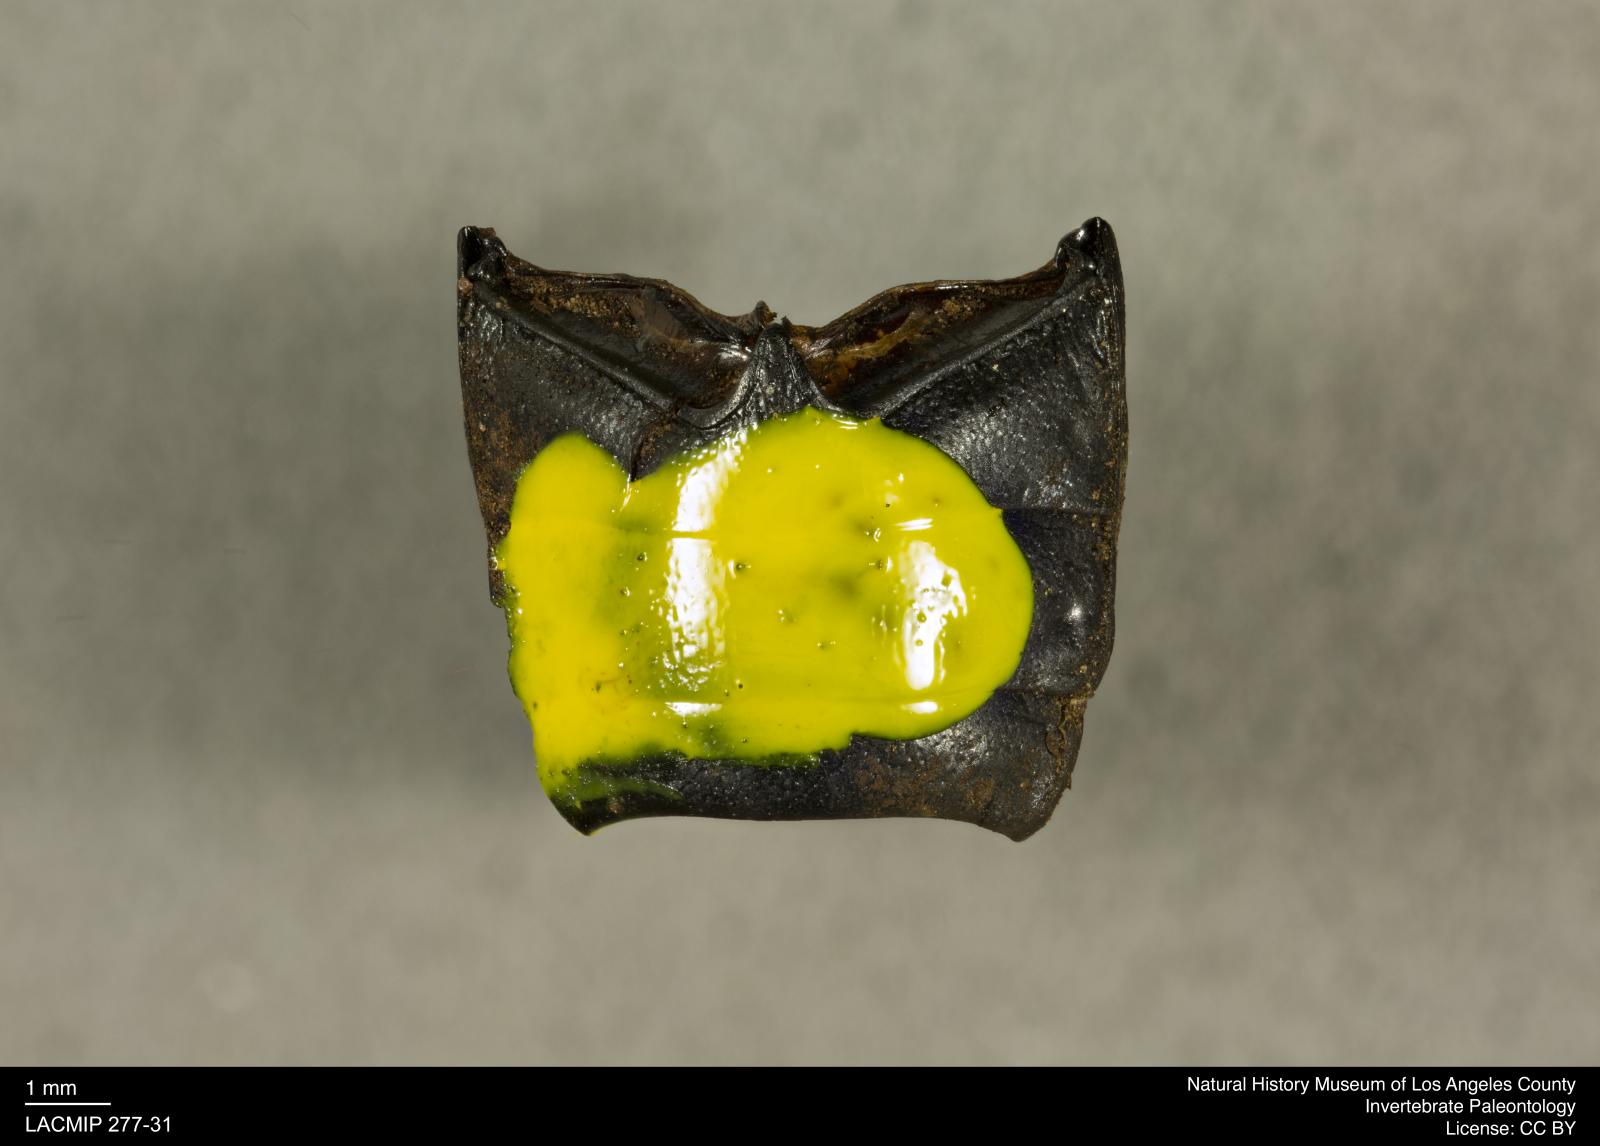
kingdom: Animalia
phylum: Arthropoda
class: Insecta
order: Coleoptera
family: Tenebrionidae
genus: Coniontis
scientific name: Coniontis abdominalis
